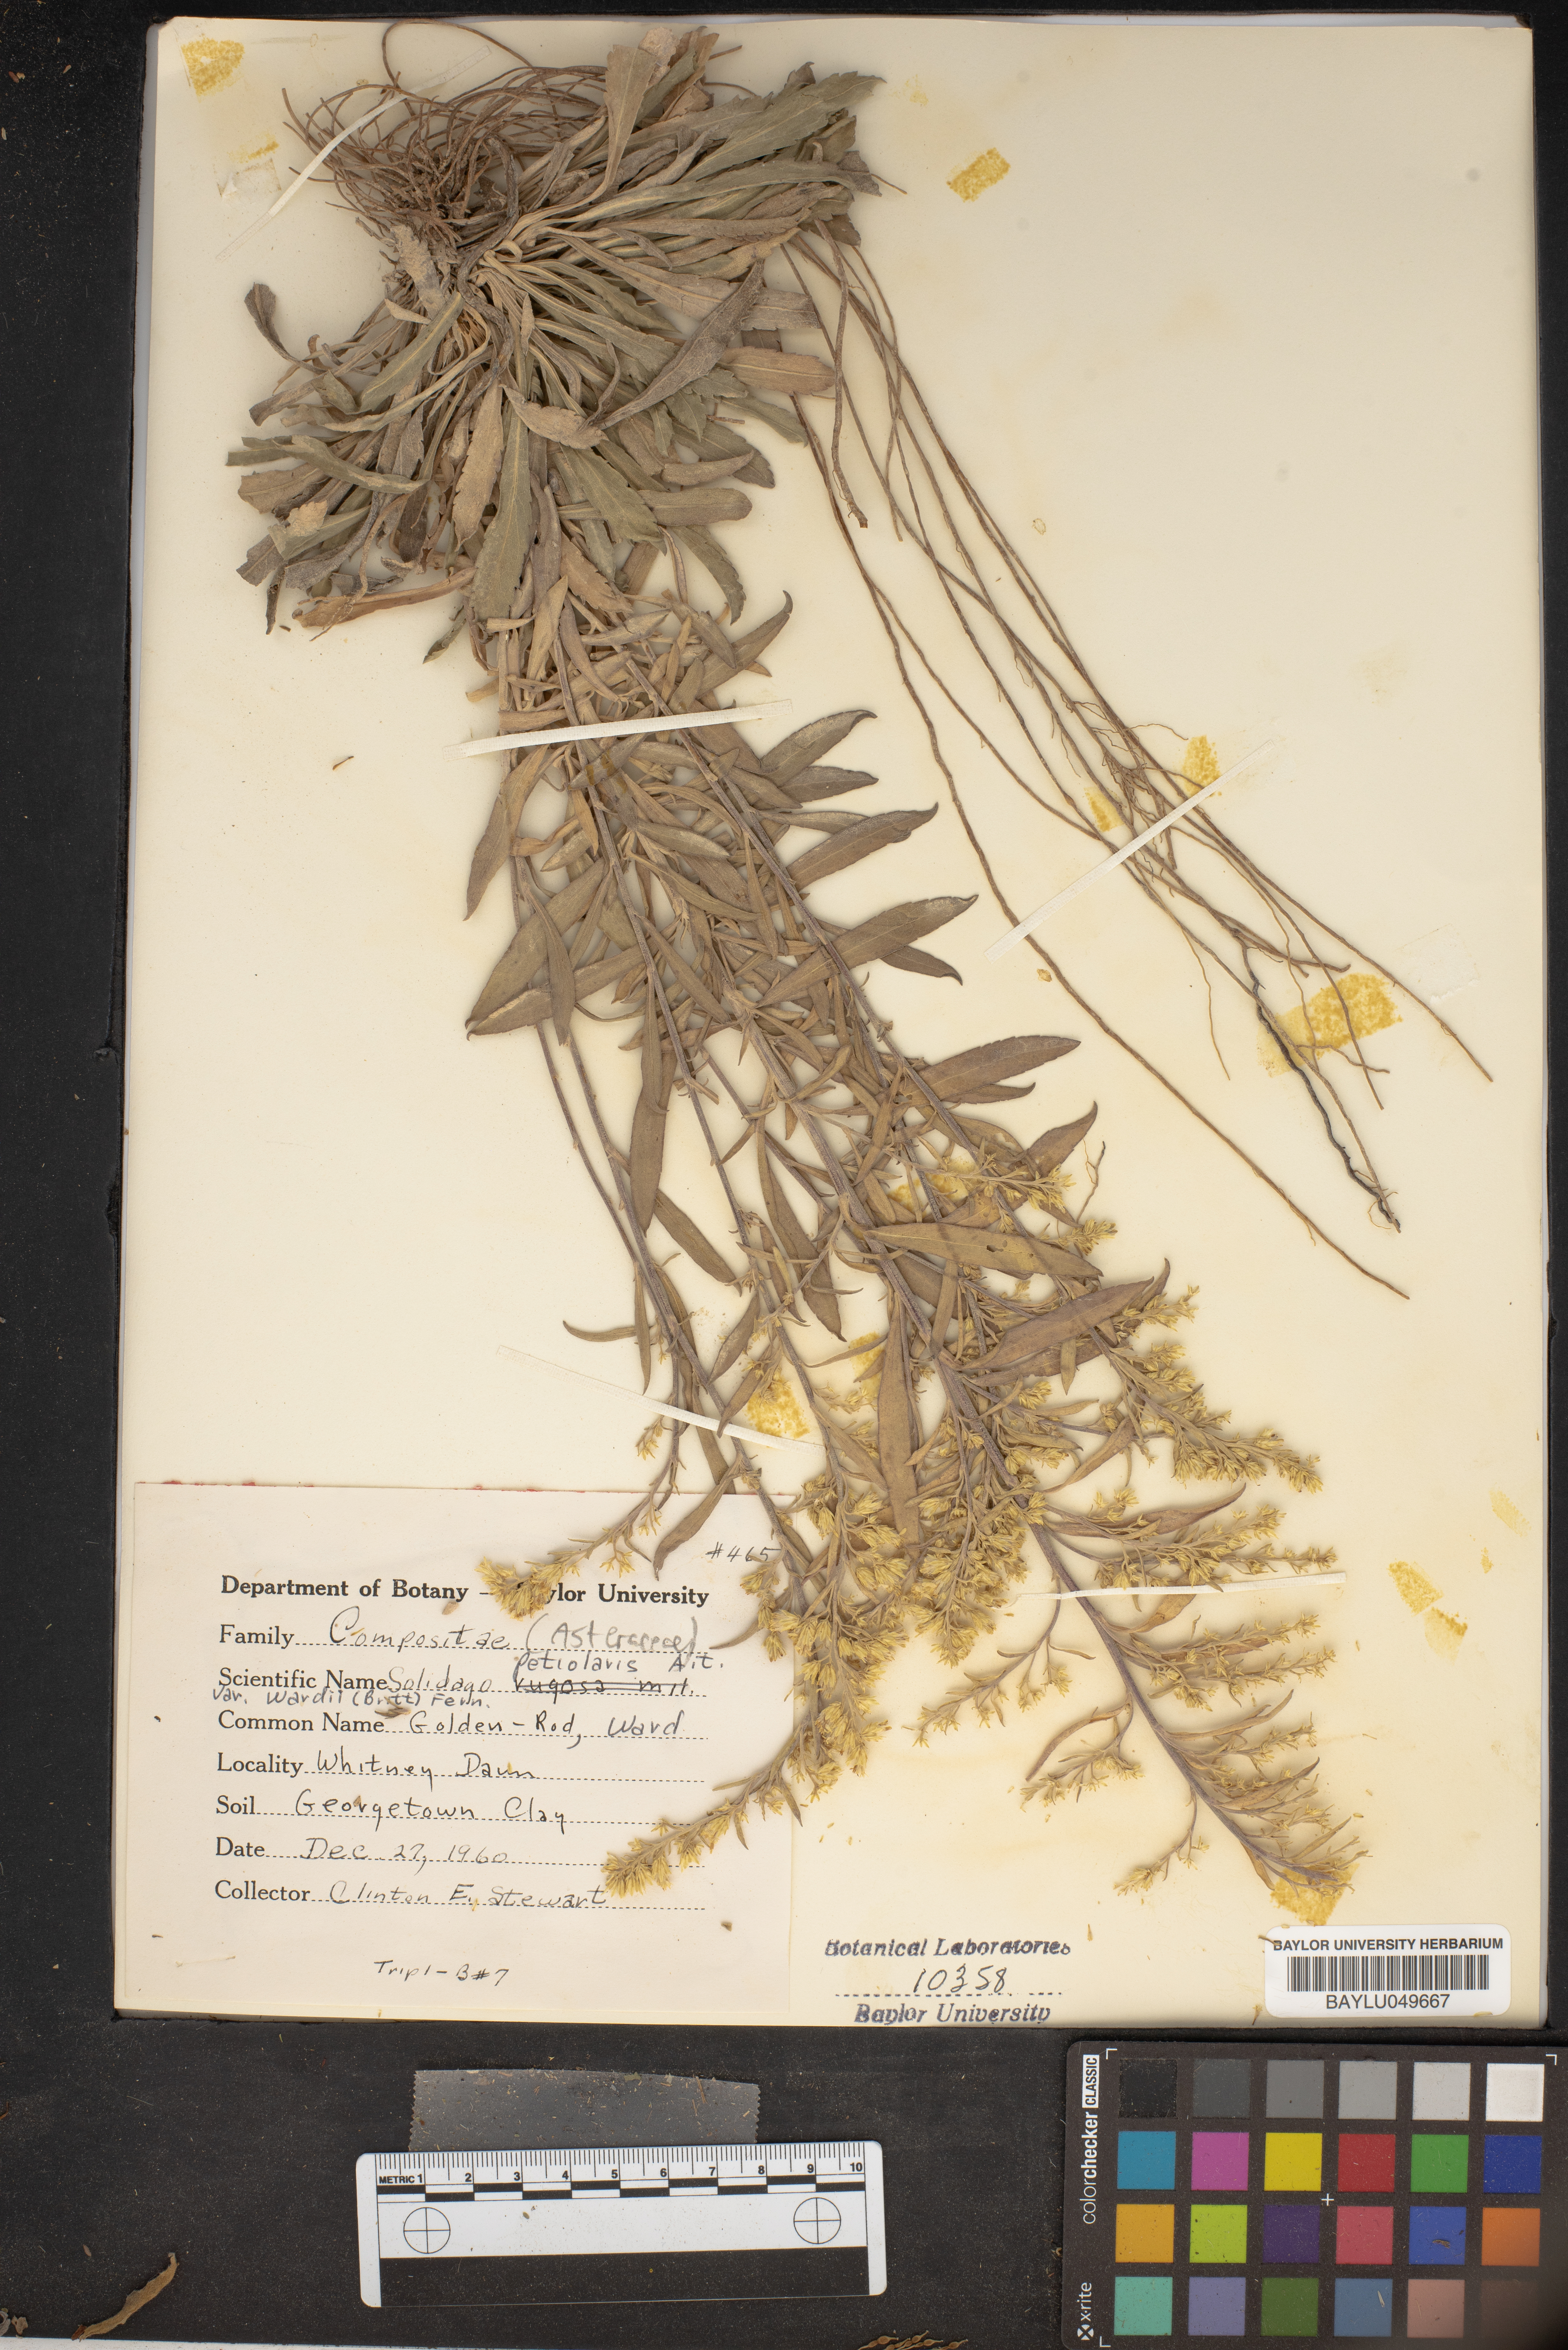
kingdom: Plantae
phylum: Tracheophyta
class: Magnoliopsida
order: Asterales
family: Asteraceae
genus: Solidago
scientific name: Solidago petiolaris
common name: Downy ragged goldenrod
